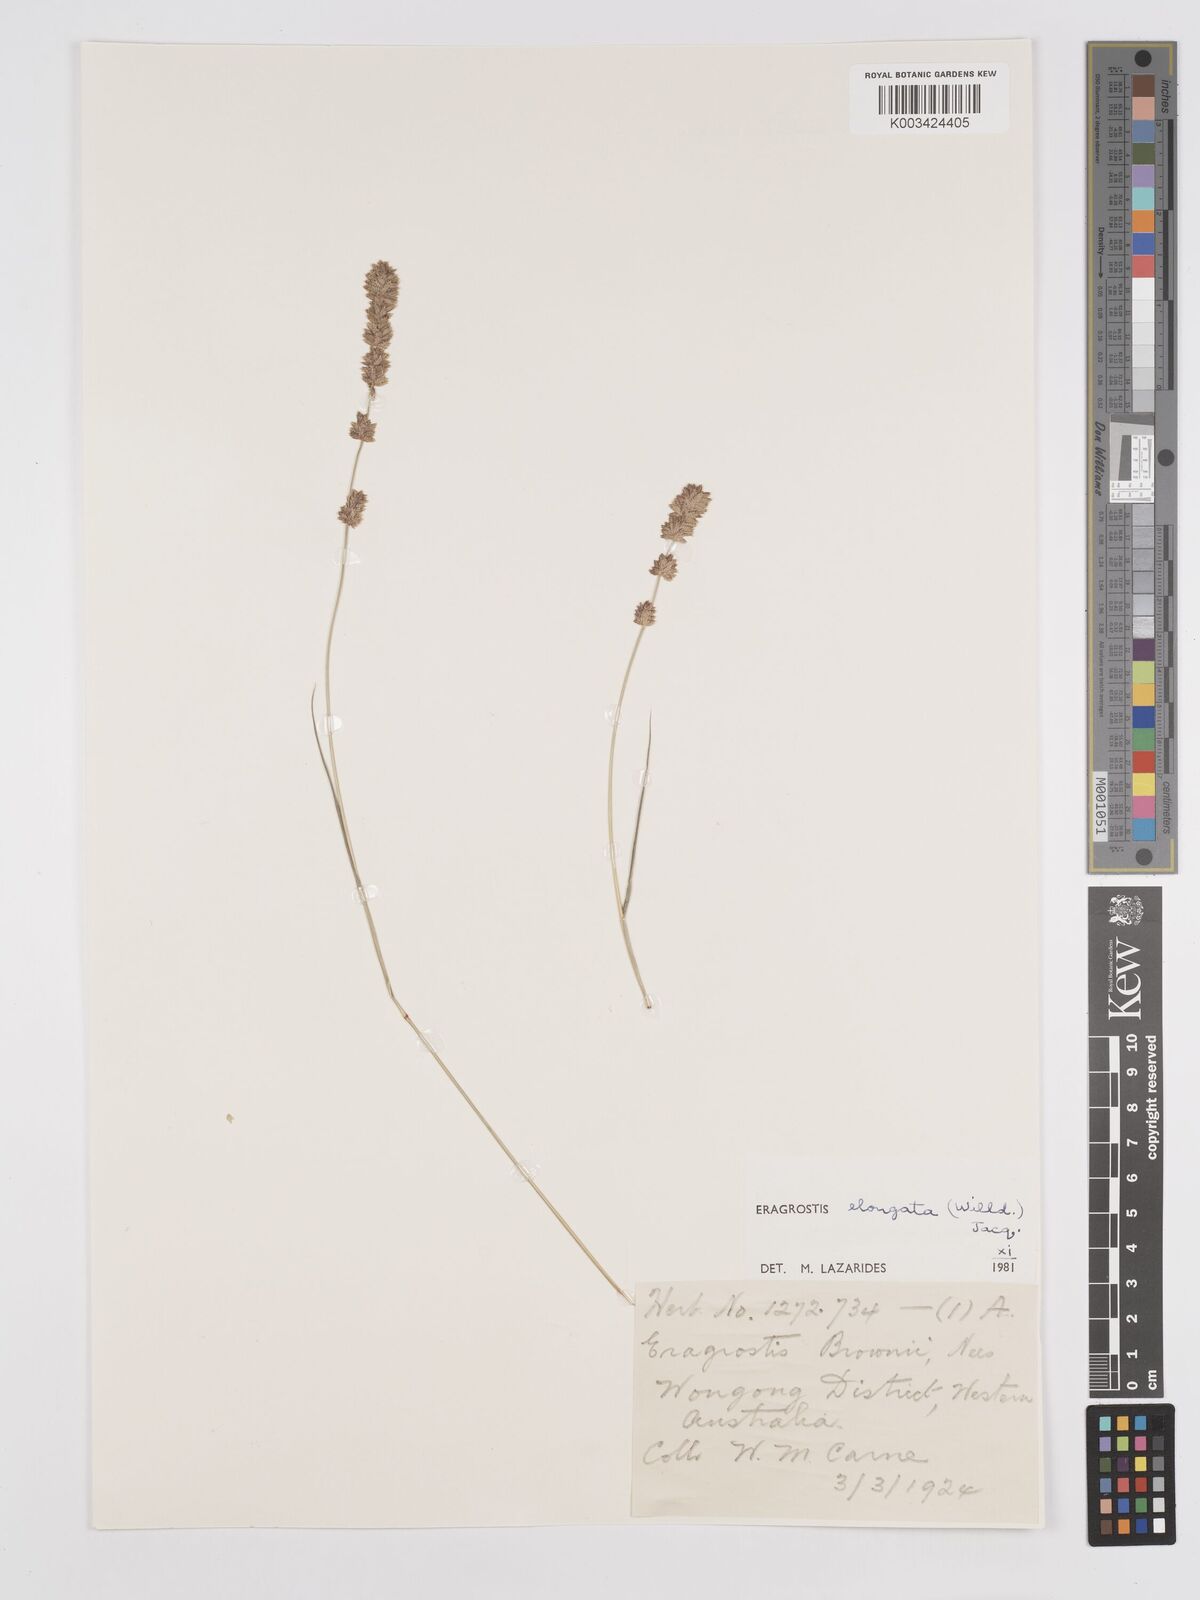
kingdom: Plantae
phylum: Tracheophyta
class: Liliopsida
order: Poales
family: Poaceae
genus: Eragrostis
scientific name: Eragrostis elongata
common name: Long lovegrass
